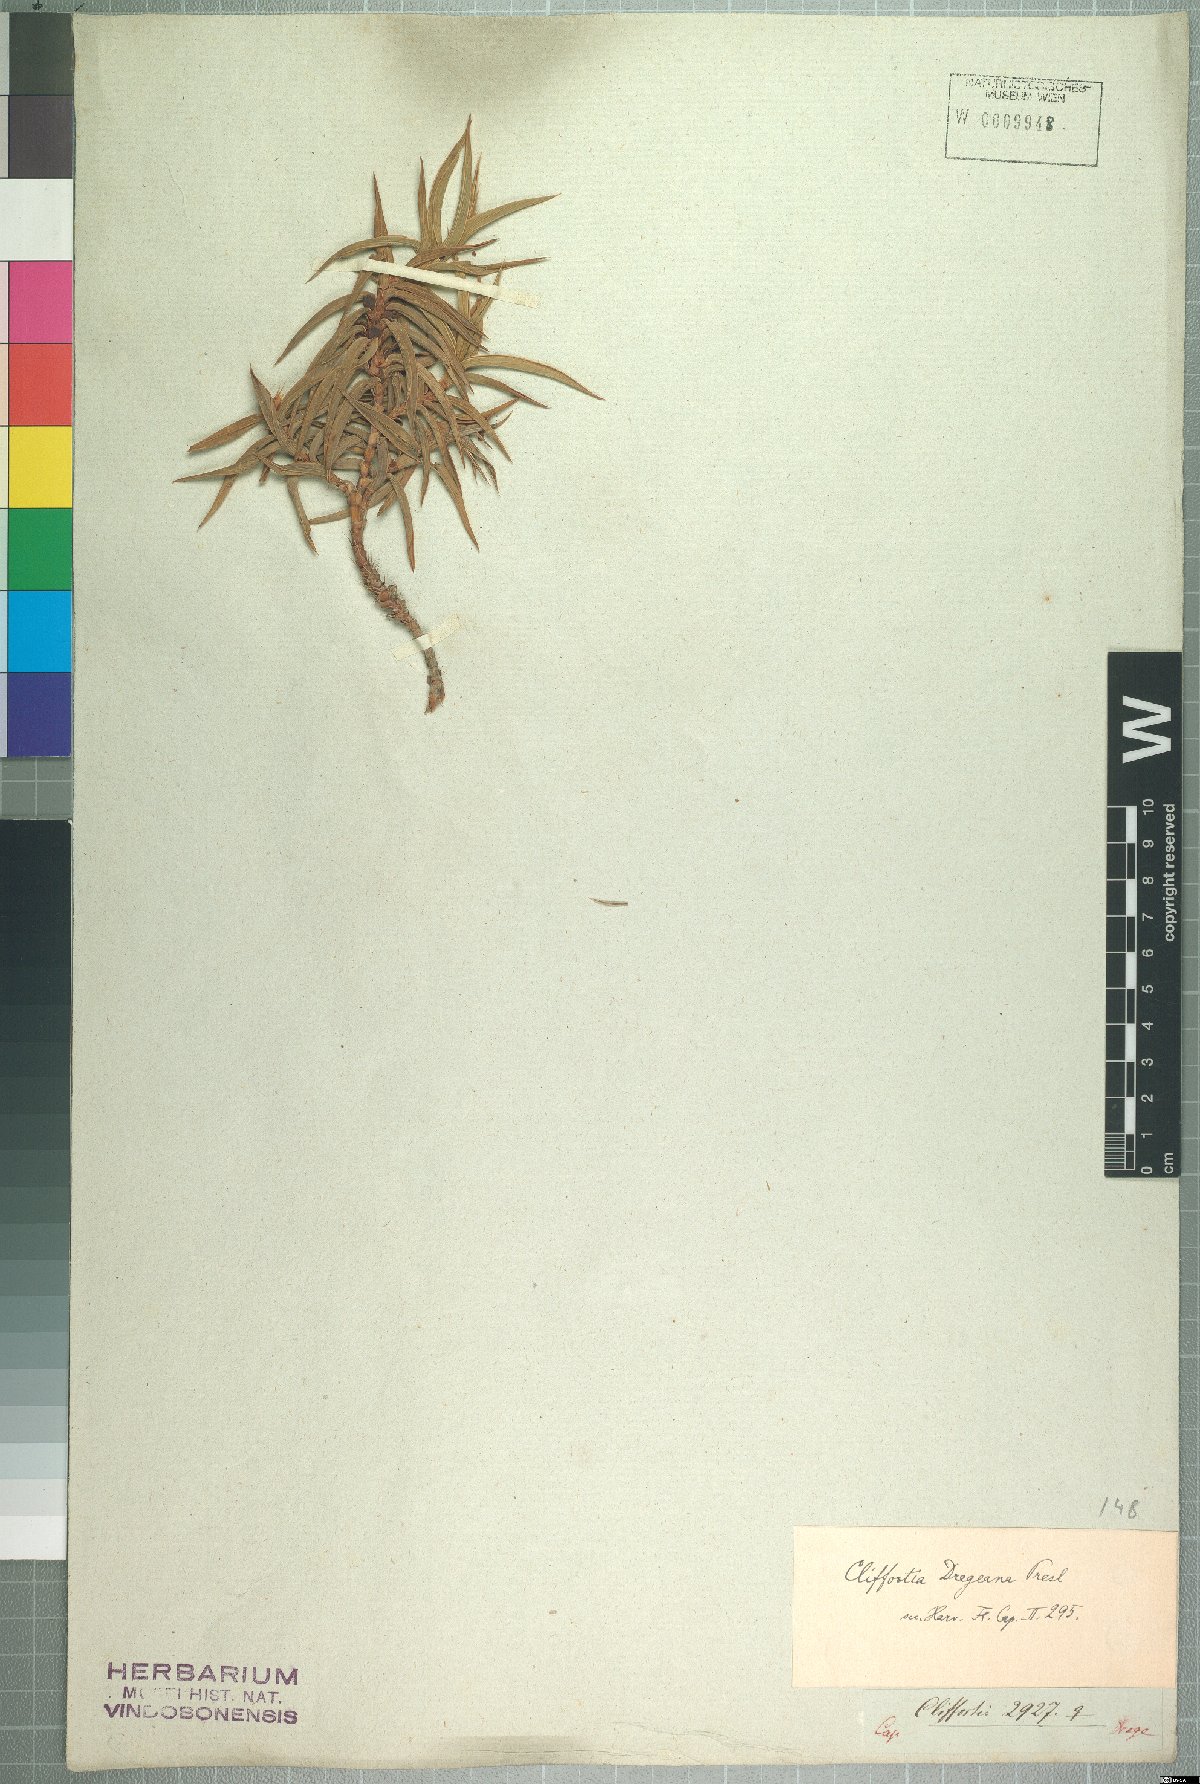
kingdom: Plantae
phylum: Tracheophyta
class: Magnoliopsida
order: Rosales
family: Rosaceae
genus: Cliffortia
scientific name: Cliffortia dregeana
